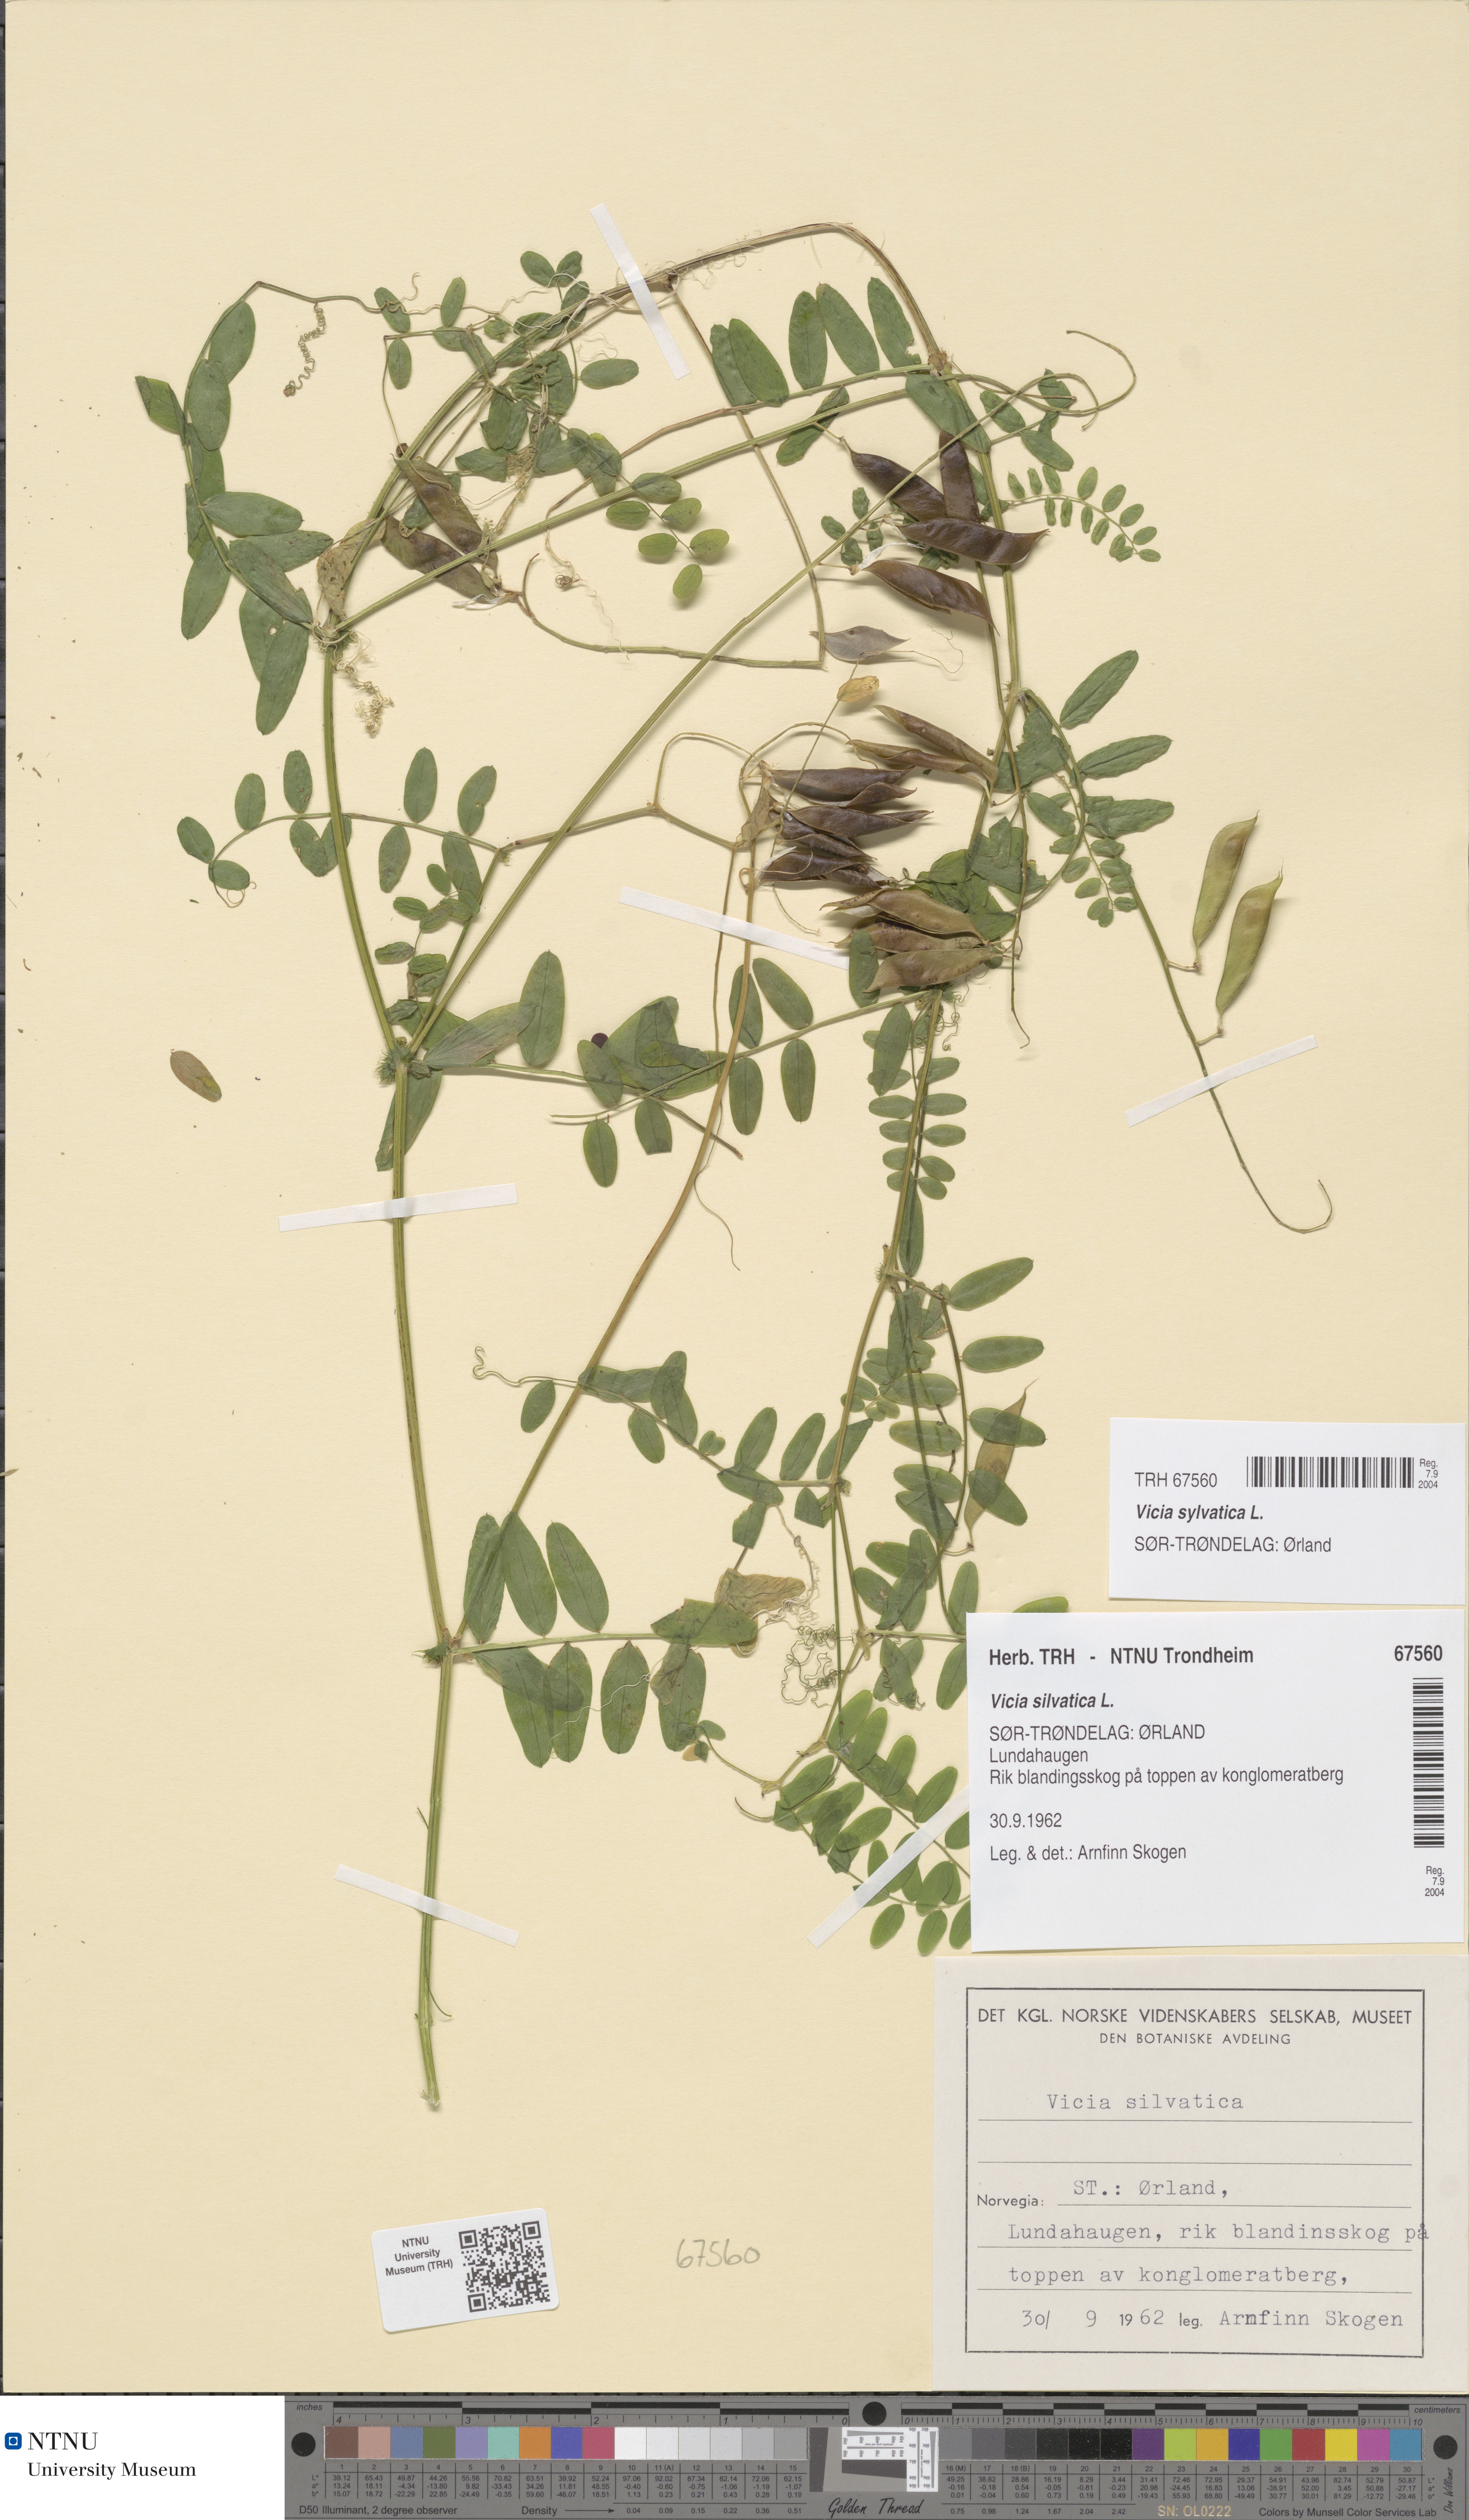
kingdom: Plantae
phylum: Tracheophyta
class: Magnoliopsida
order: Fabales
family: Fabaceae
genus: Vicia
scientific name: Vicia sylvatica
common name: Wood vetch
